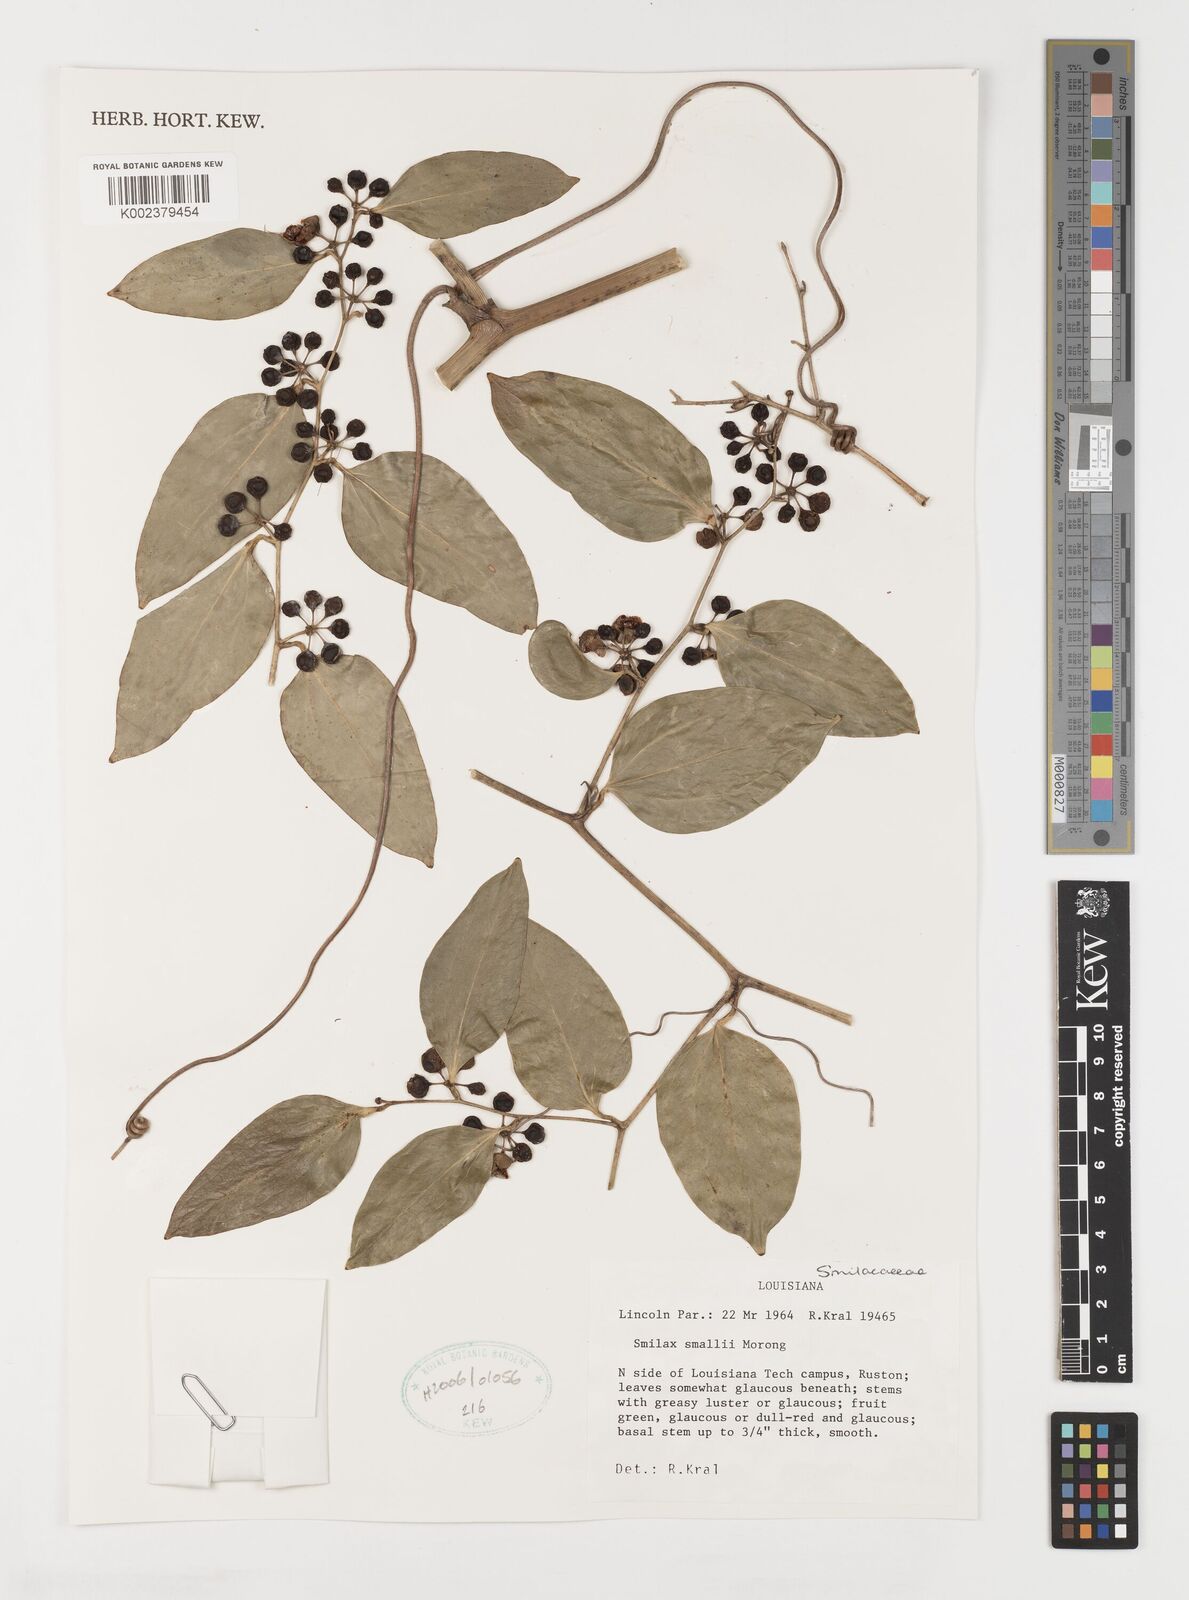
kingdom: Plantae
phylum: Tracheophyta
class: Liliopsida
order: Liliales
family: Smilacaceae
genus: Smilax
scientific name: Smilax maritima
